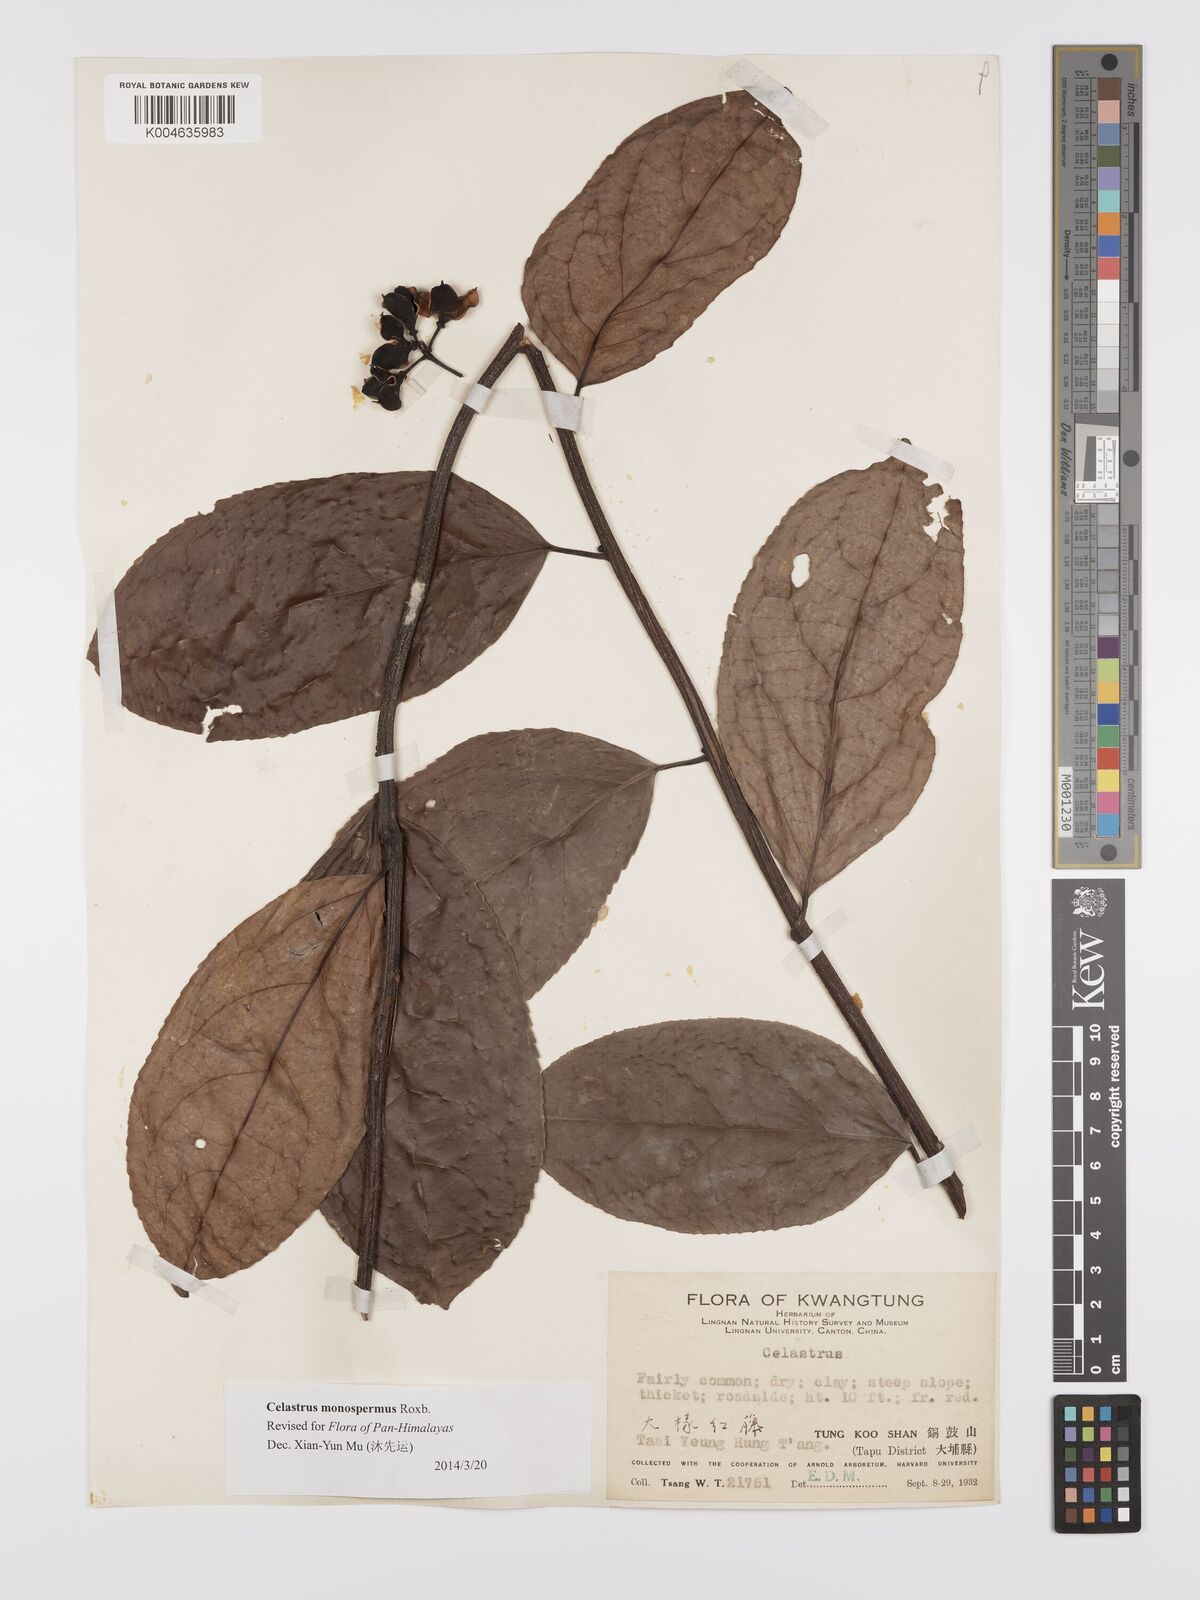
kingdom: Plantae
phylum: Tracheophyta
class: Magnoliopsida
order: Celastrales
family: Celastraceae
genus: Celastrus
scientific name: Celastrus monospermus
